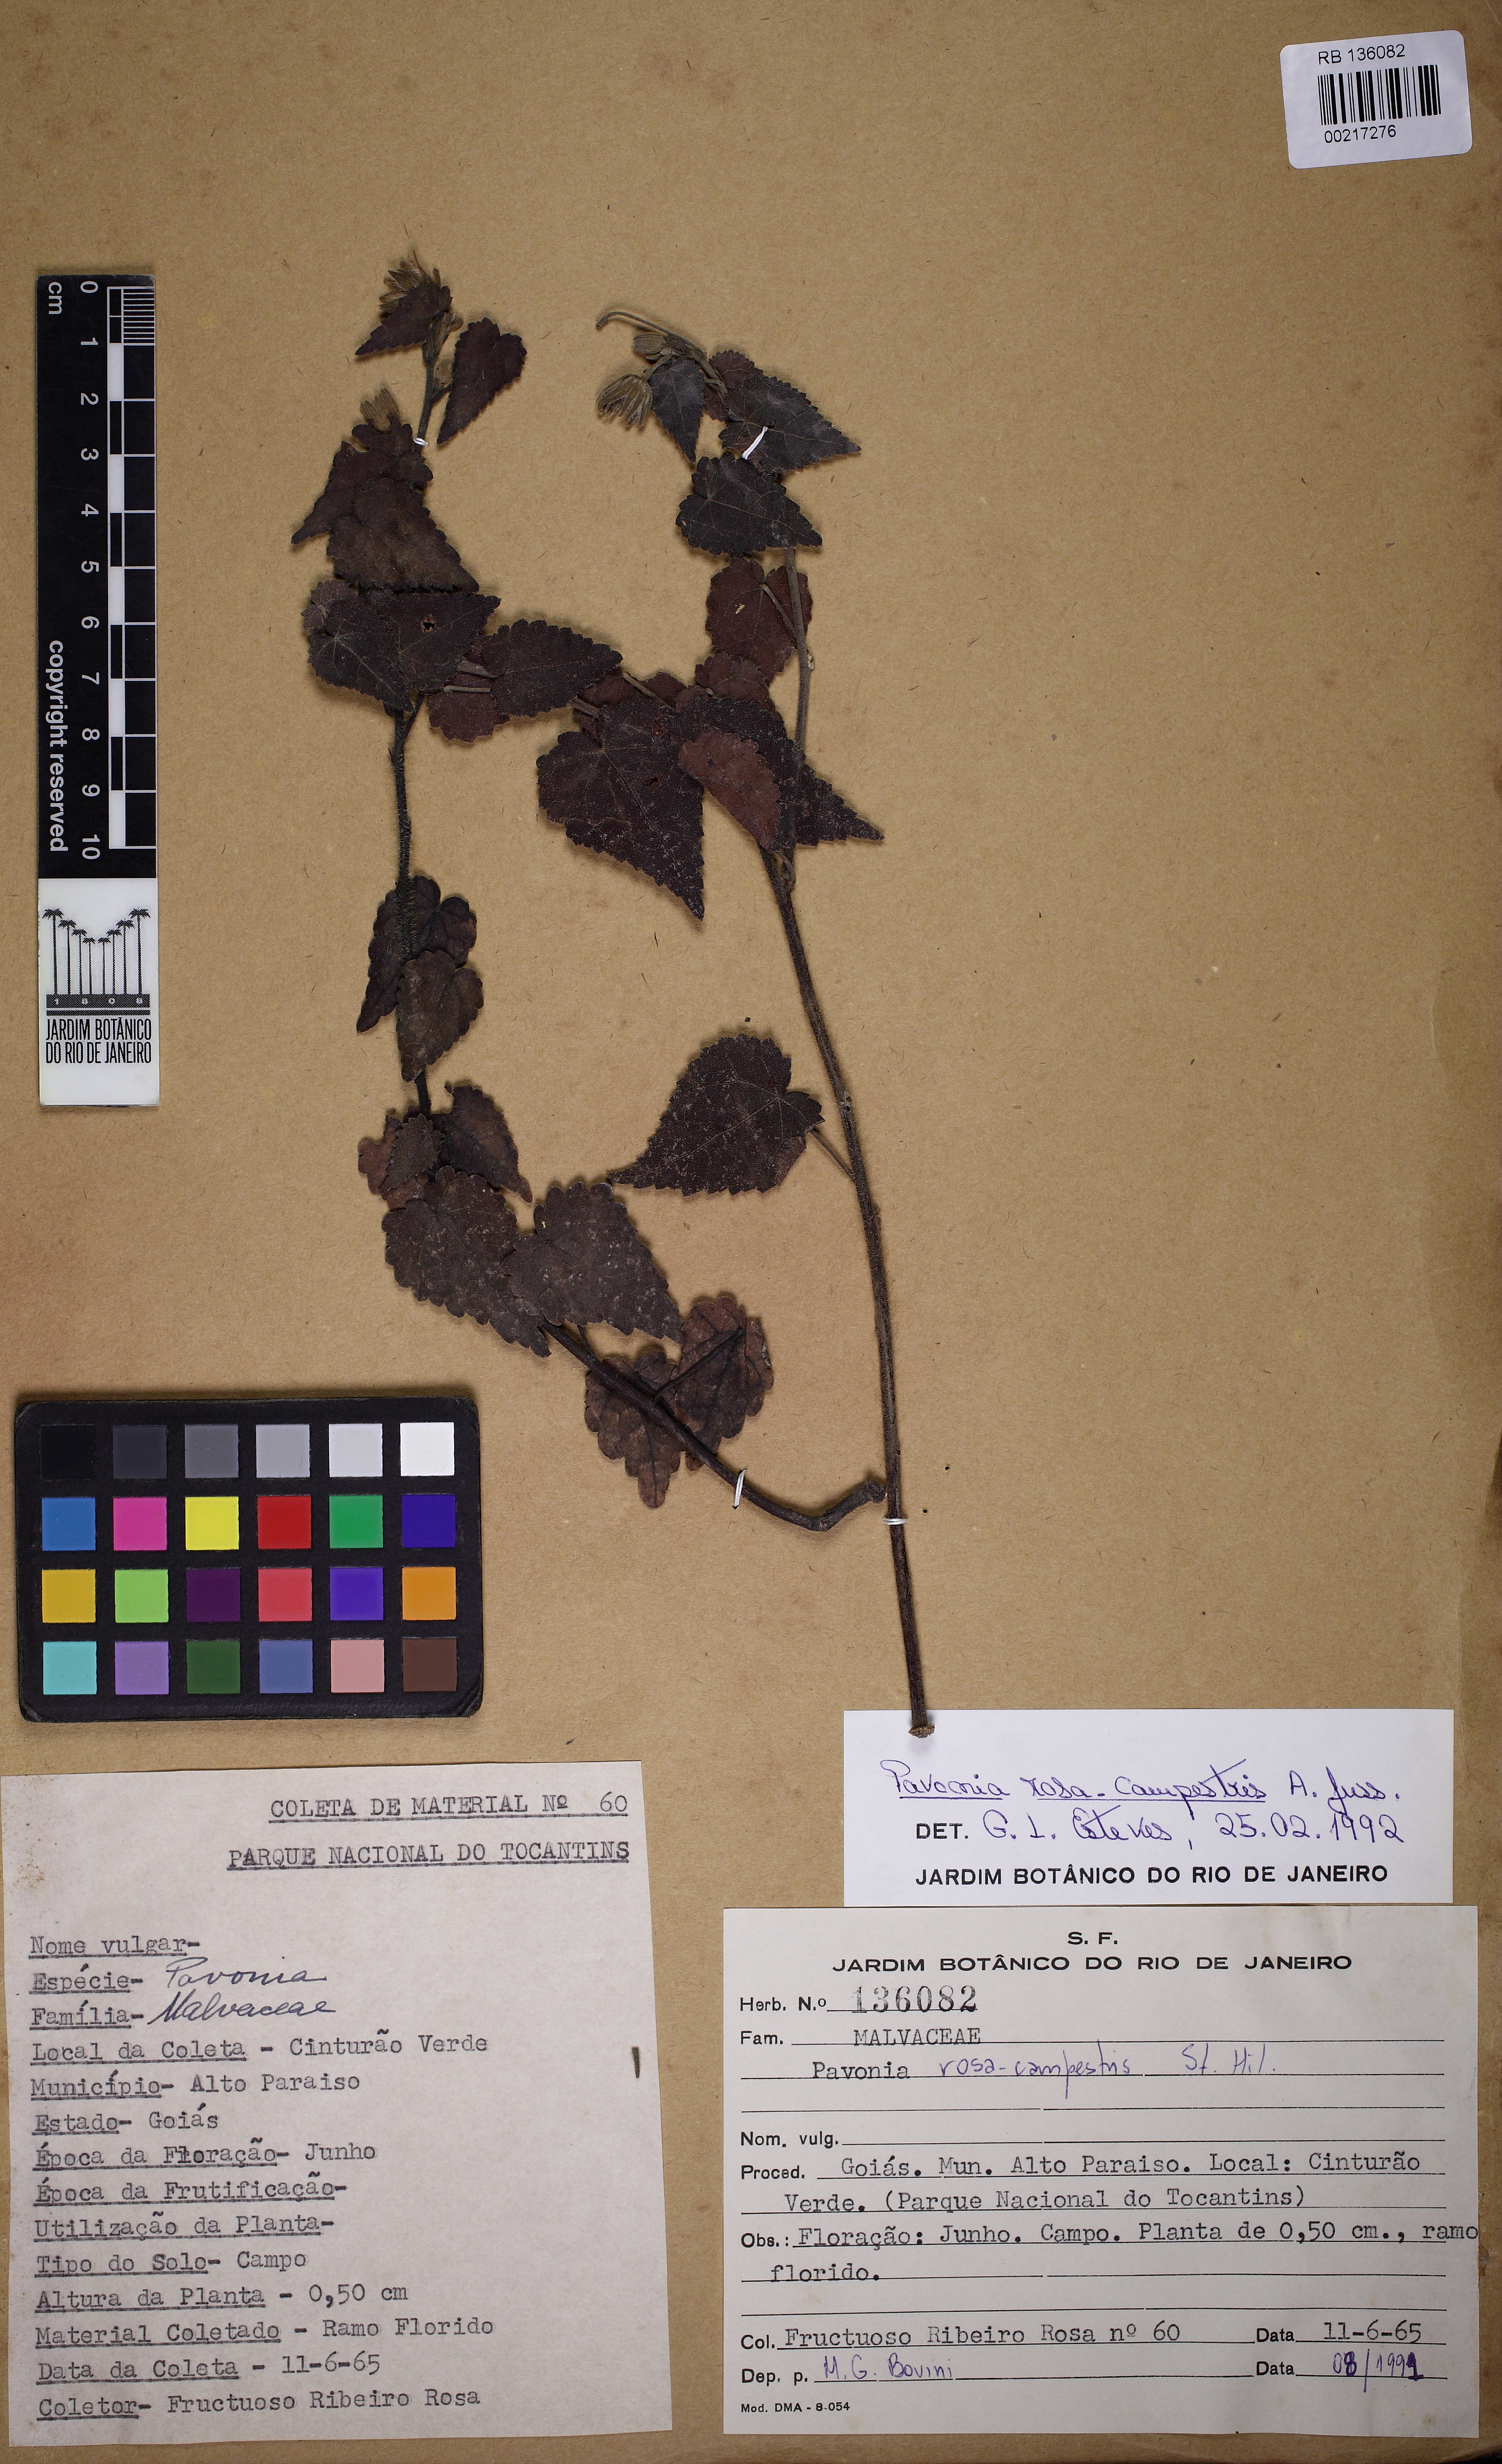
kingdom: Plantae
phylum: Tracheophyta
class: Magnoliopsida
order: Malvales
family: Malvaceae
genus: Pavonia
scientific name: Pavonia rosa-campestris
